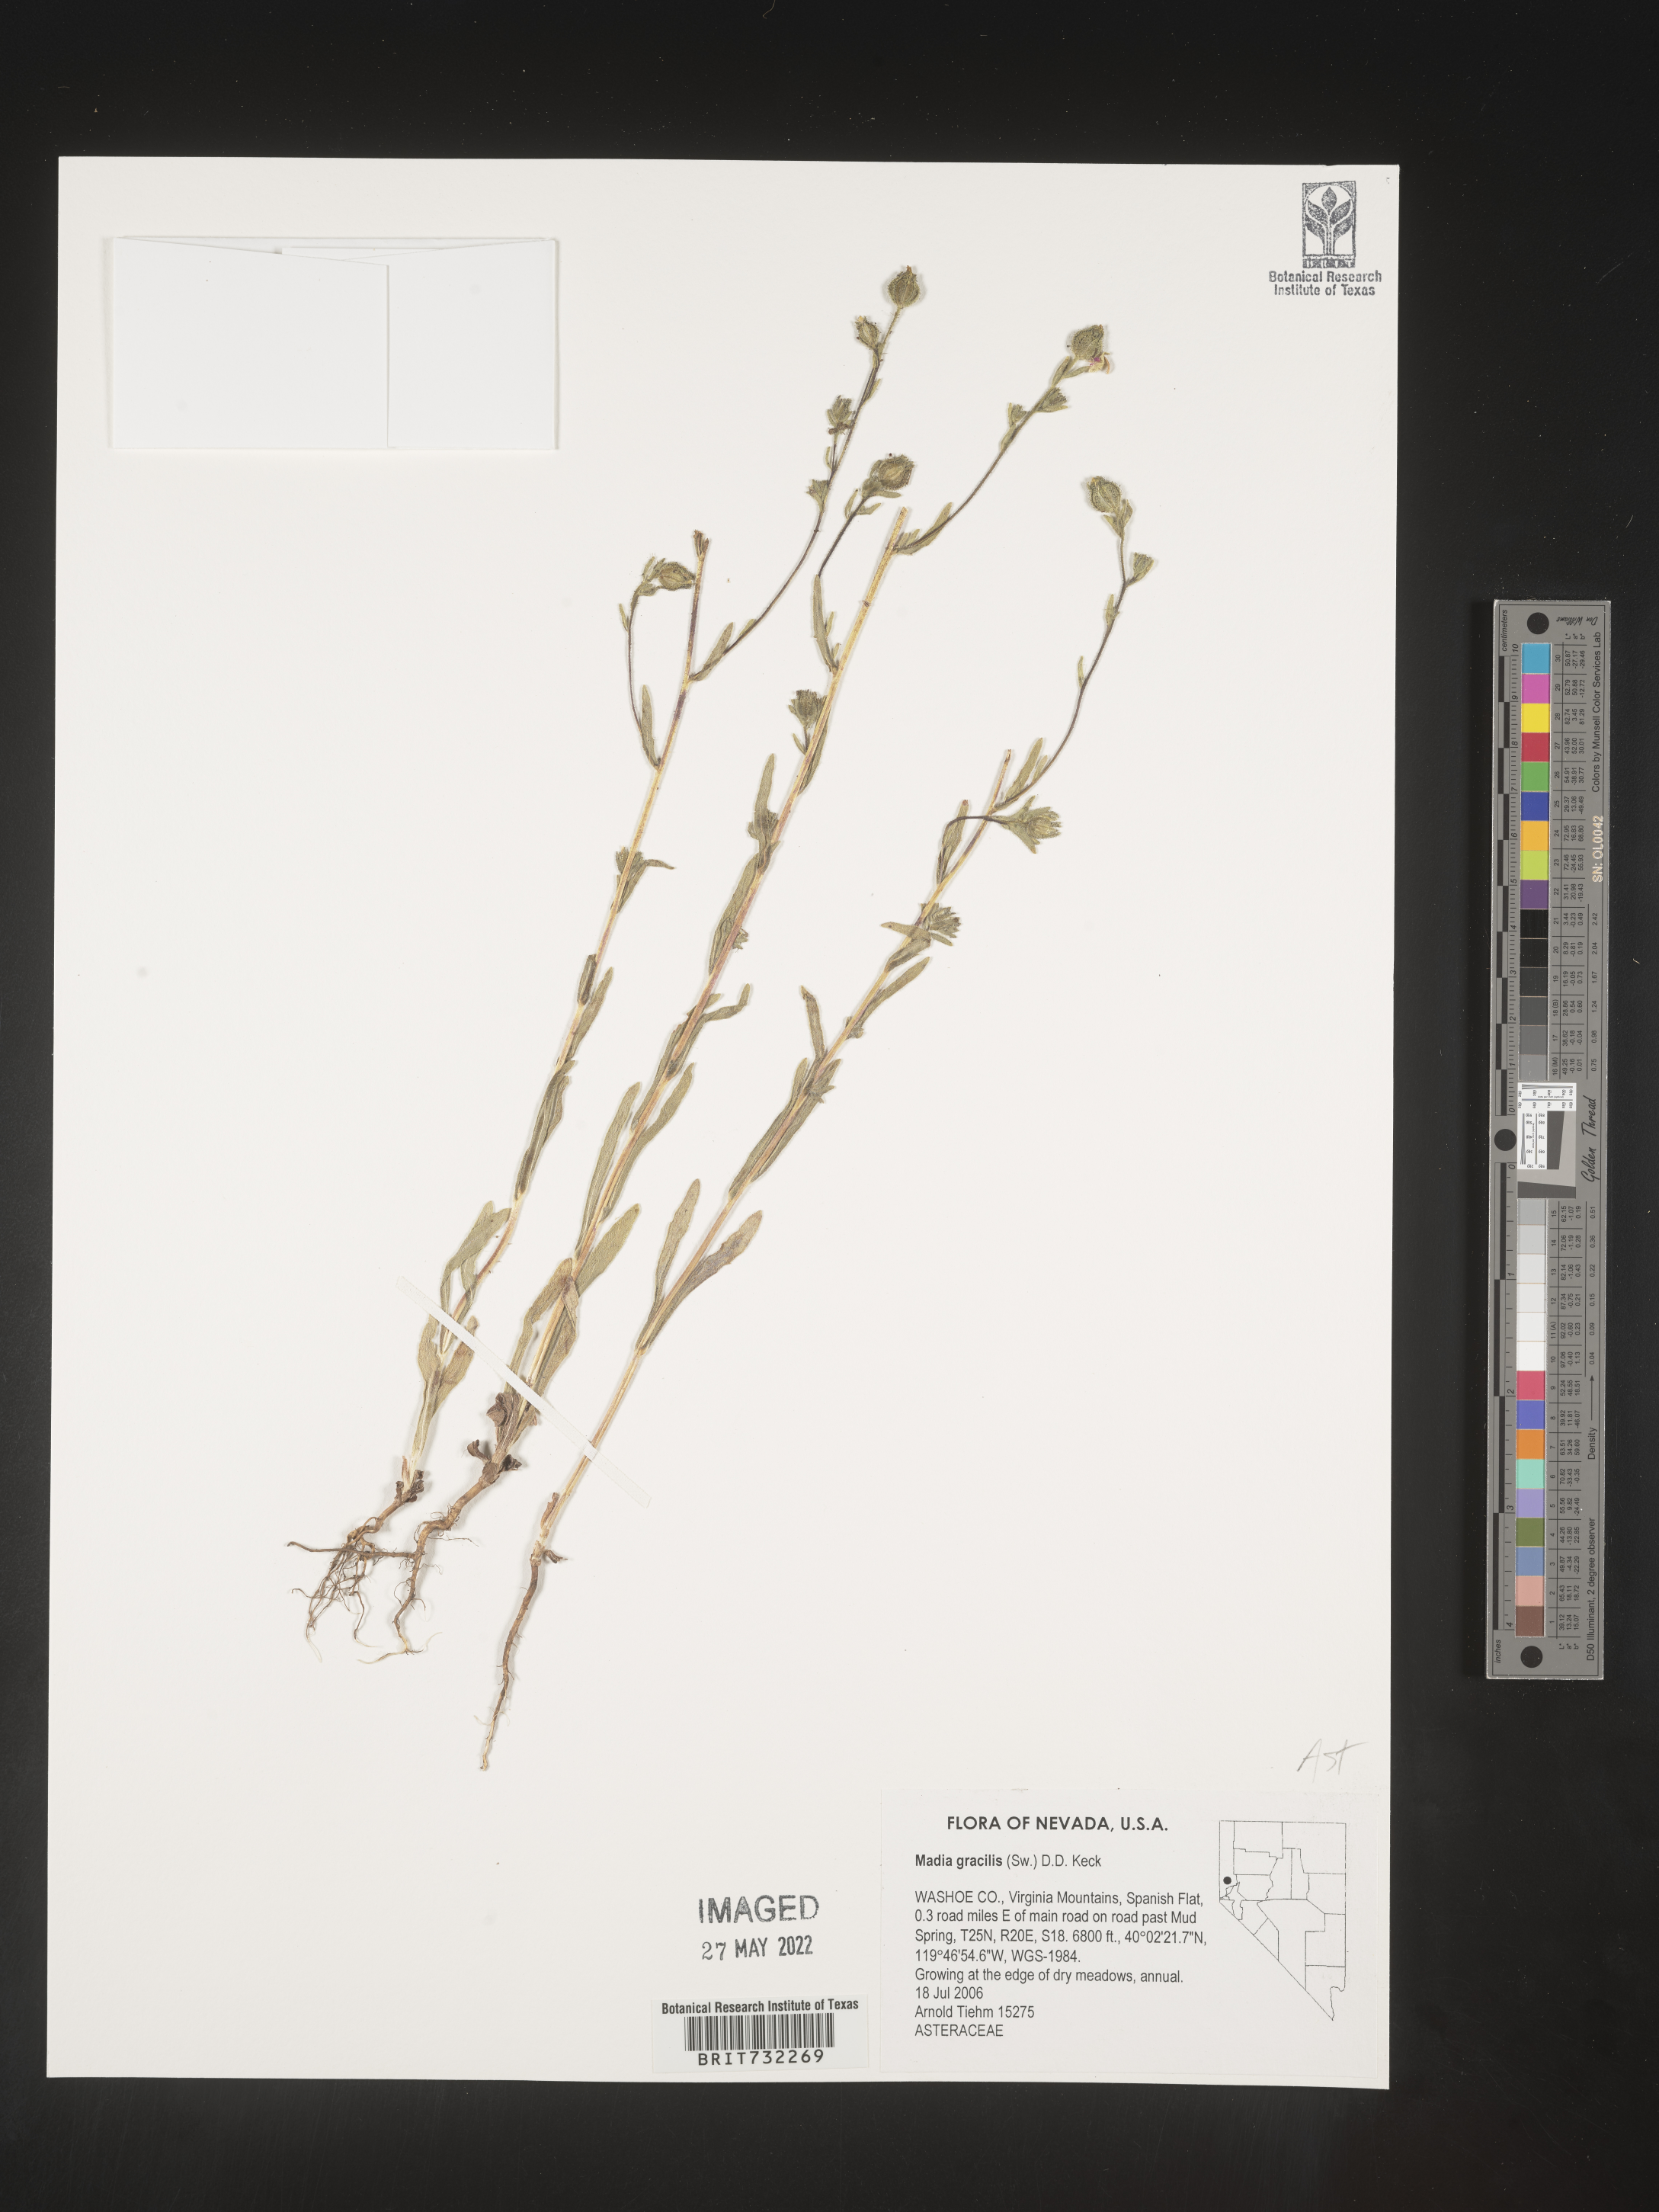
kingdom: Plantae
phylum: Tracheophyta
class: Magnoliopsida
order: Asterales
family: Asteraceae
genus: Madia
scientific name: Madia gracilis
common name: Grassy tarweed
